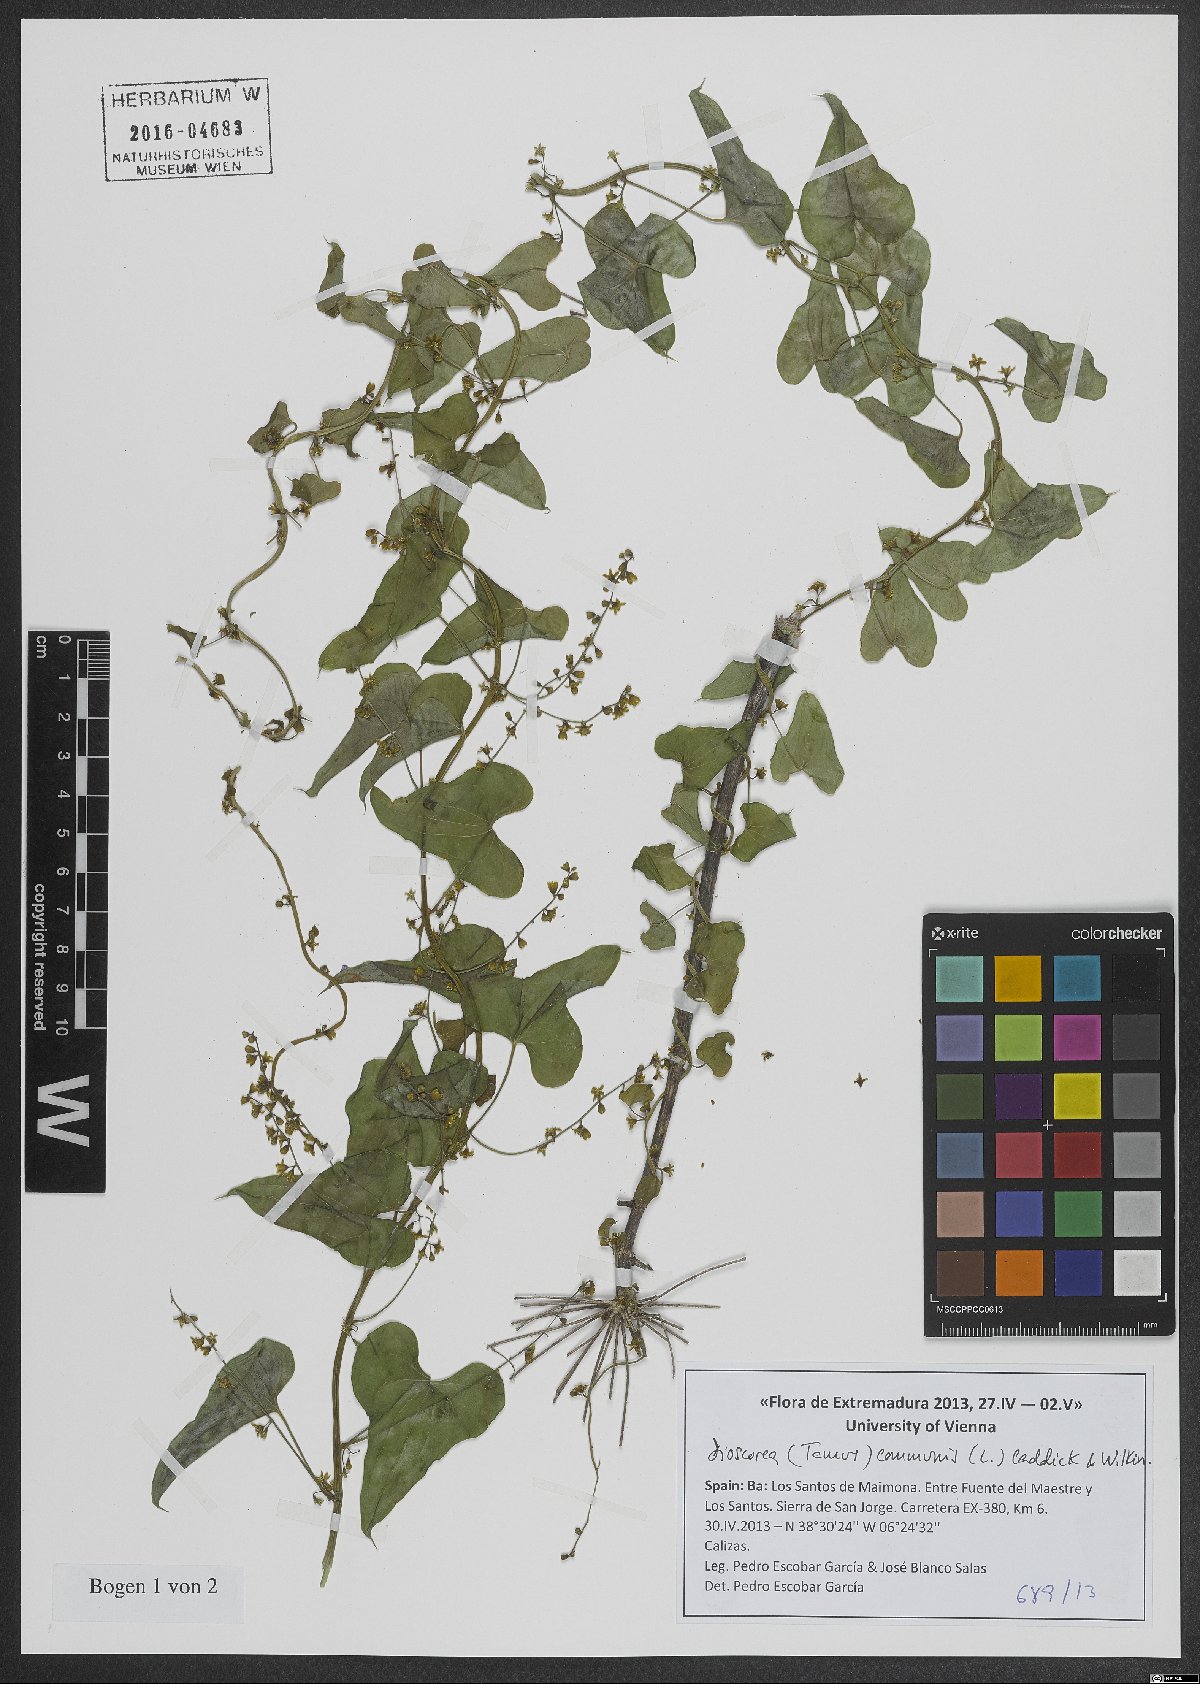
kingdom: Plantae
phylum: Tracheophyta
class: Liliopsida
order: Dioscoreales
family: Dioscoreaceae
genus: Dioscorea
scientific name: Dioscorea communis
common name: Black-bindweed
